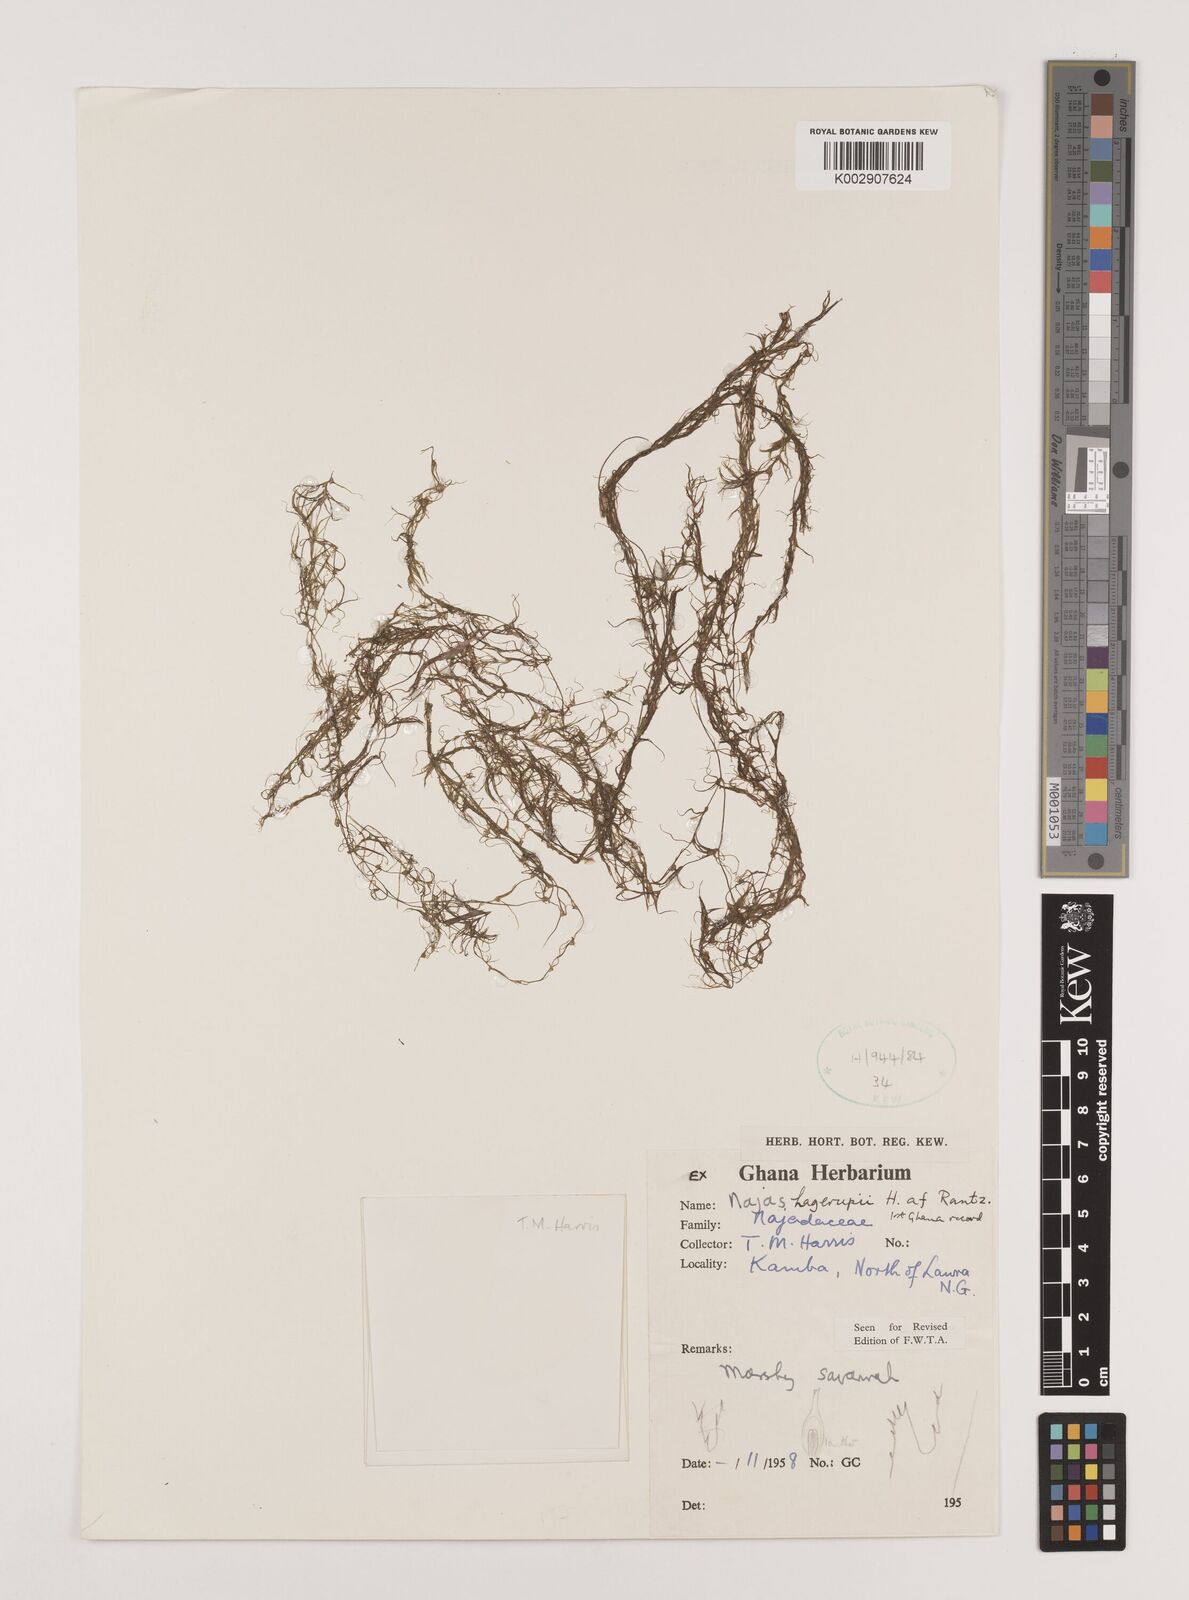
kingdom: Plantae
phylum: Tracheophyta
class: Liliopsida
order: Alismatales
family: Hydrocharitaceae
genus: Najas
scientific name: Najas hagerupii
